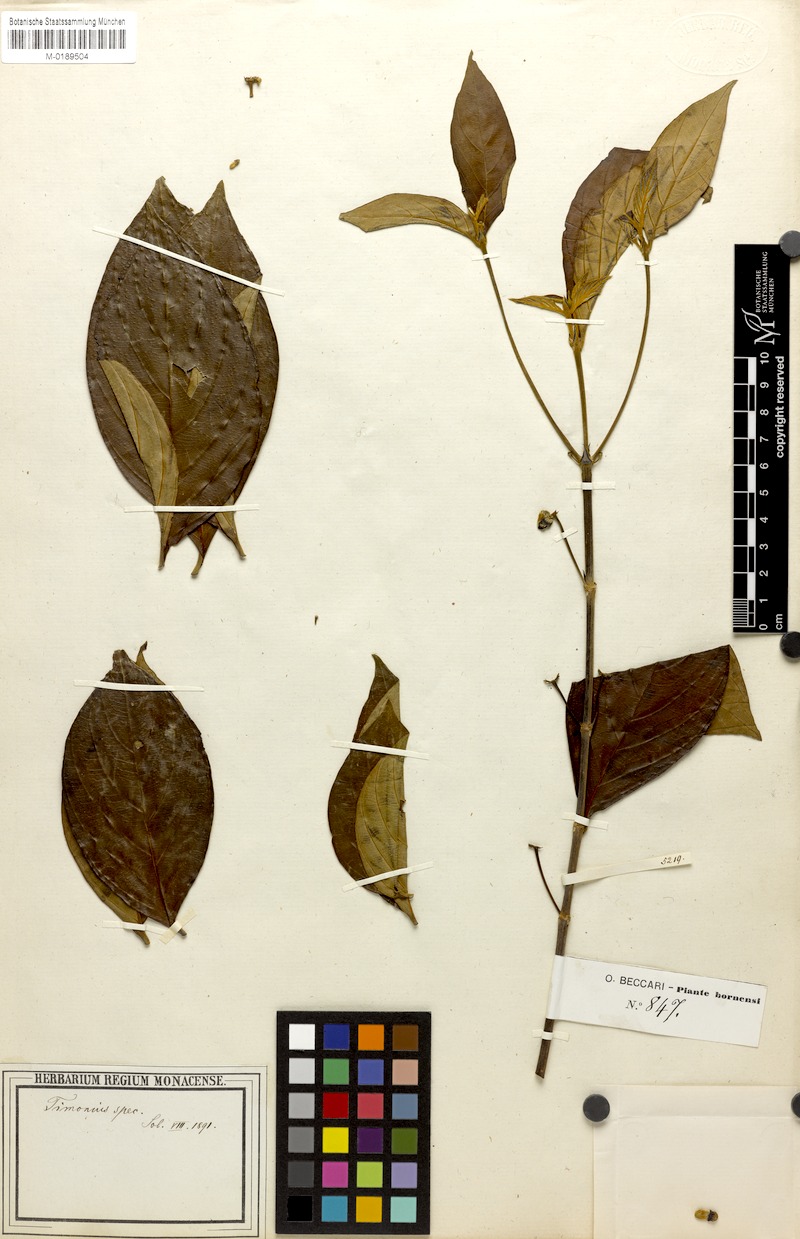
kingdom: Plantae
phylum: Tracheophyta
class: Magnoliopsida
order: Gentianales
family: Rubiaceae
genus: Timonius
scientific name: Timonius
